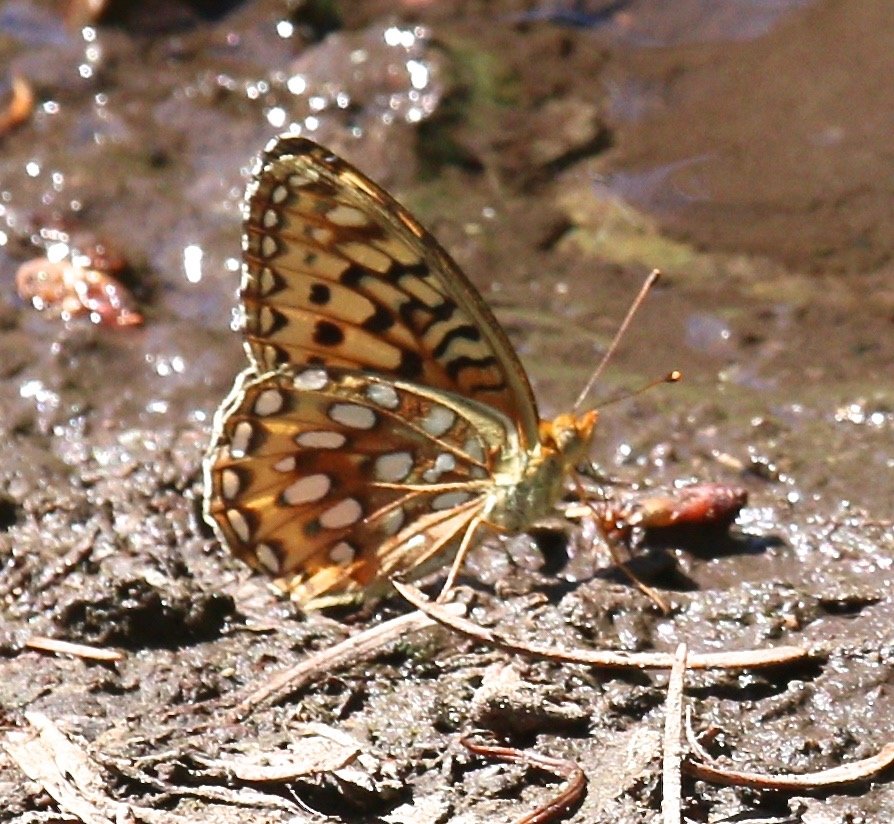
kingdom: Animalia
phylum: Arthropoda
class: Insecta
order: Lepidoptera
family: Nymphalidae
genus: Speyeria
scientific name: Speyeria atlantis
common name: Northwestern Fritillary
